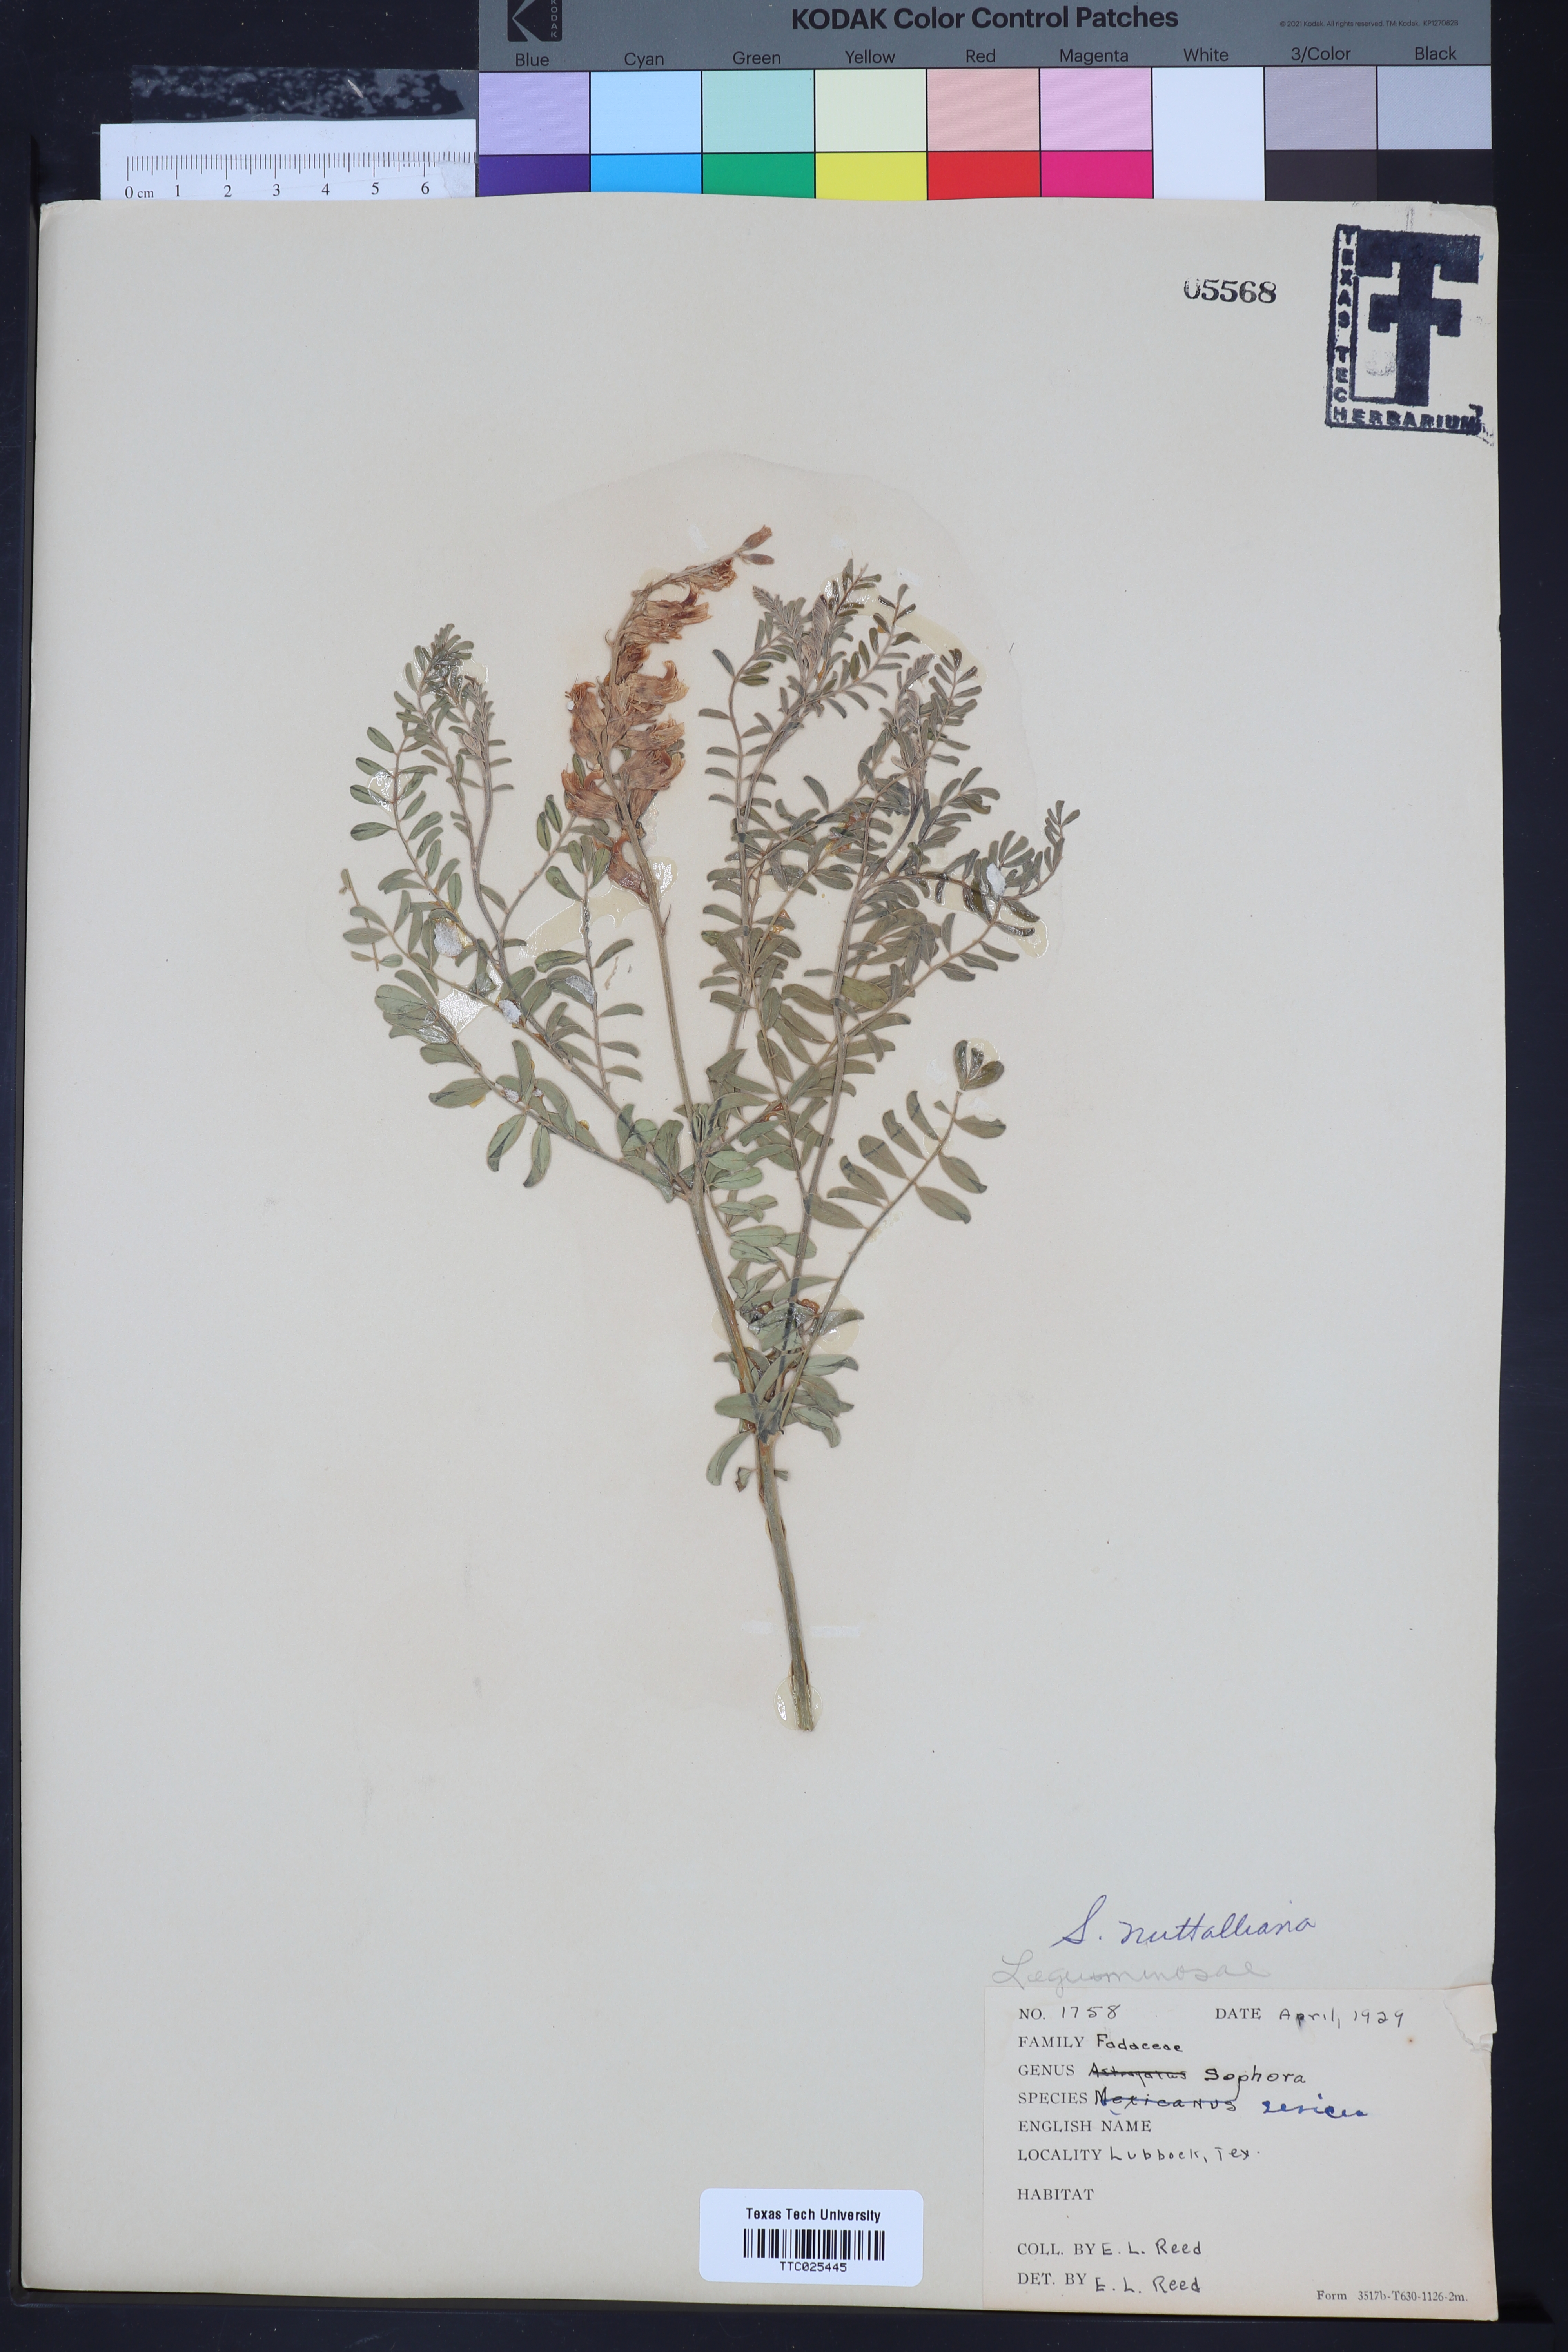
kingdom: Plantae
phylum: Tracheophyta
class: Magnoliopsida
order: Fabales
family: Fabaceae
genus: Sophora
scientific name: Sophora nuttalliana
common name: Silky sophora
